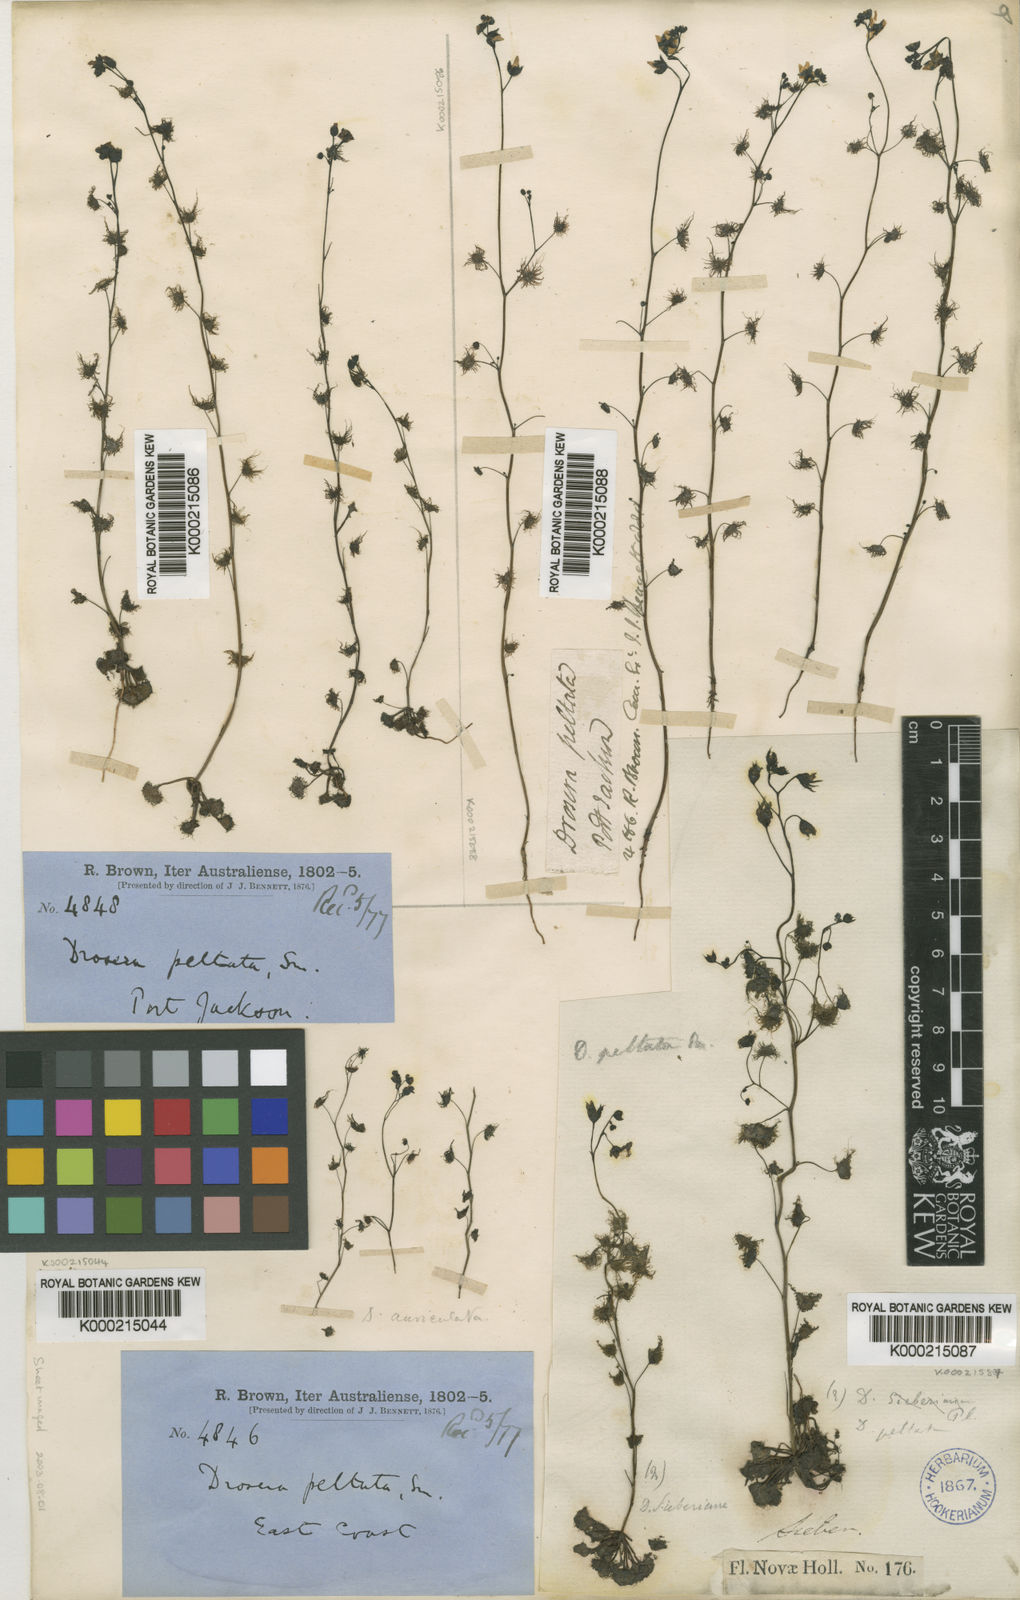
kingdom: Plantae
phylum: Tracheophyta
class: Magnoliopsida
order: Caryophyllales
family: Droseraceae
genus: Drosera
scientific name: Drosera peltata
